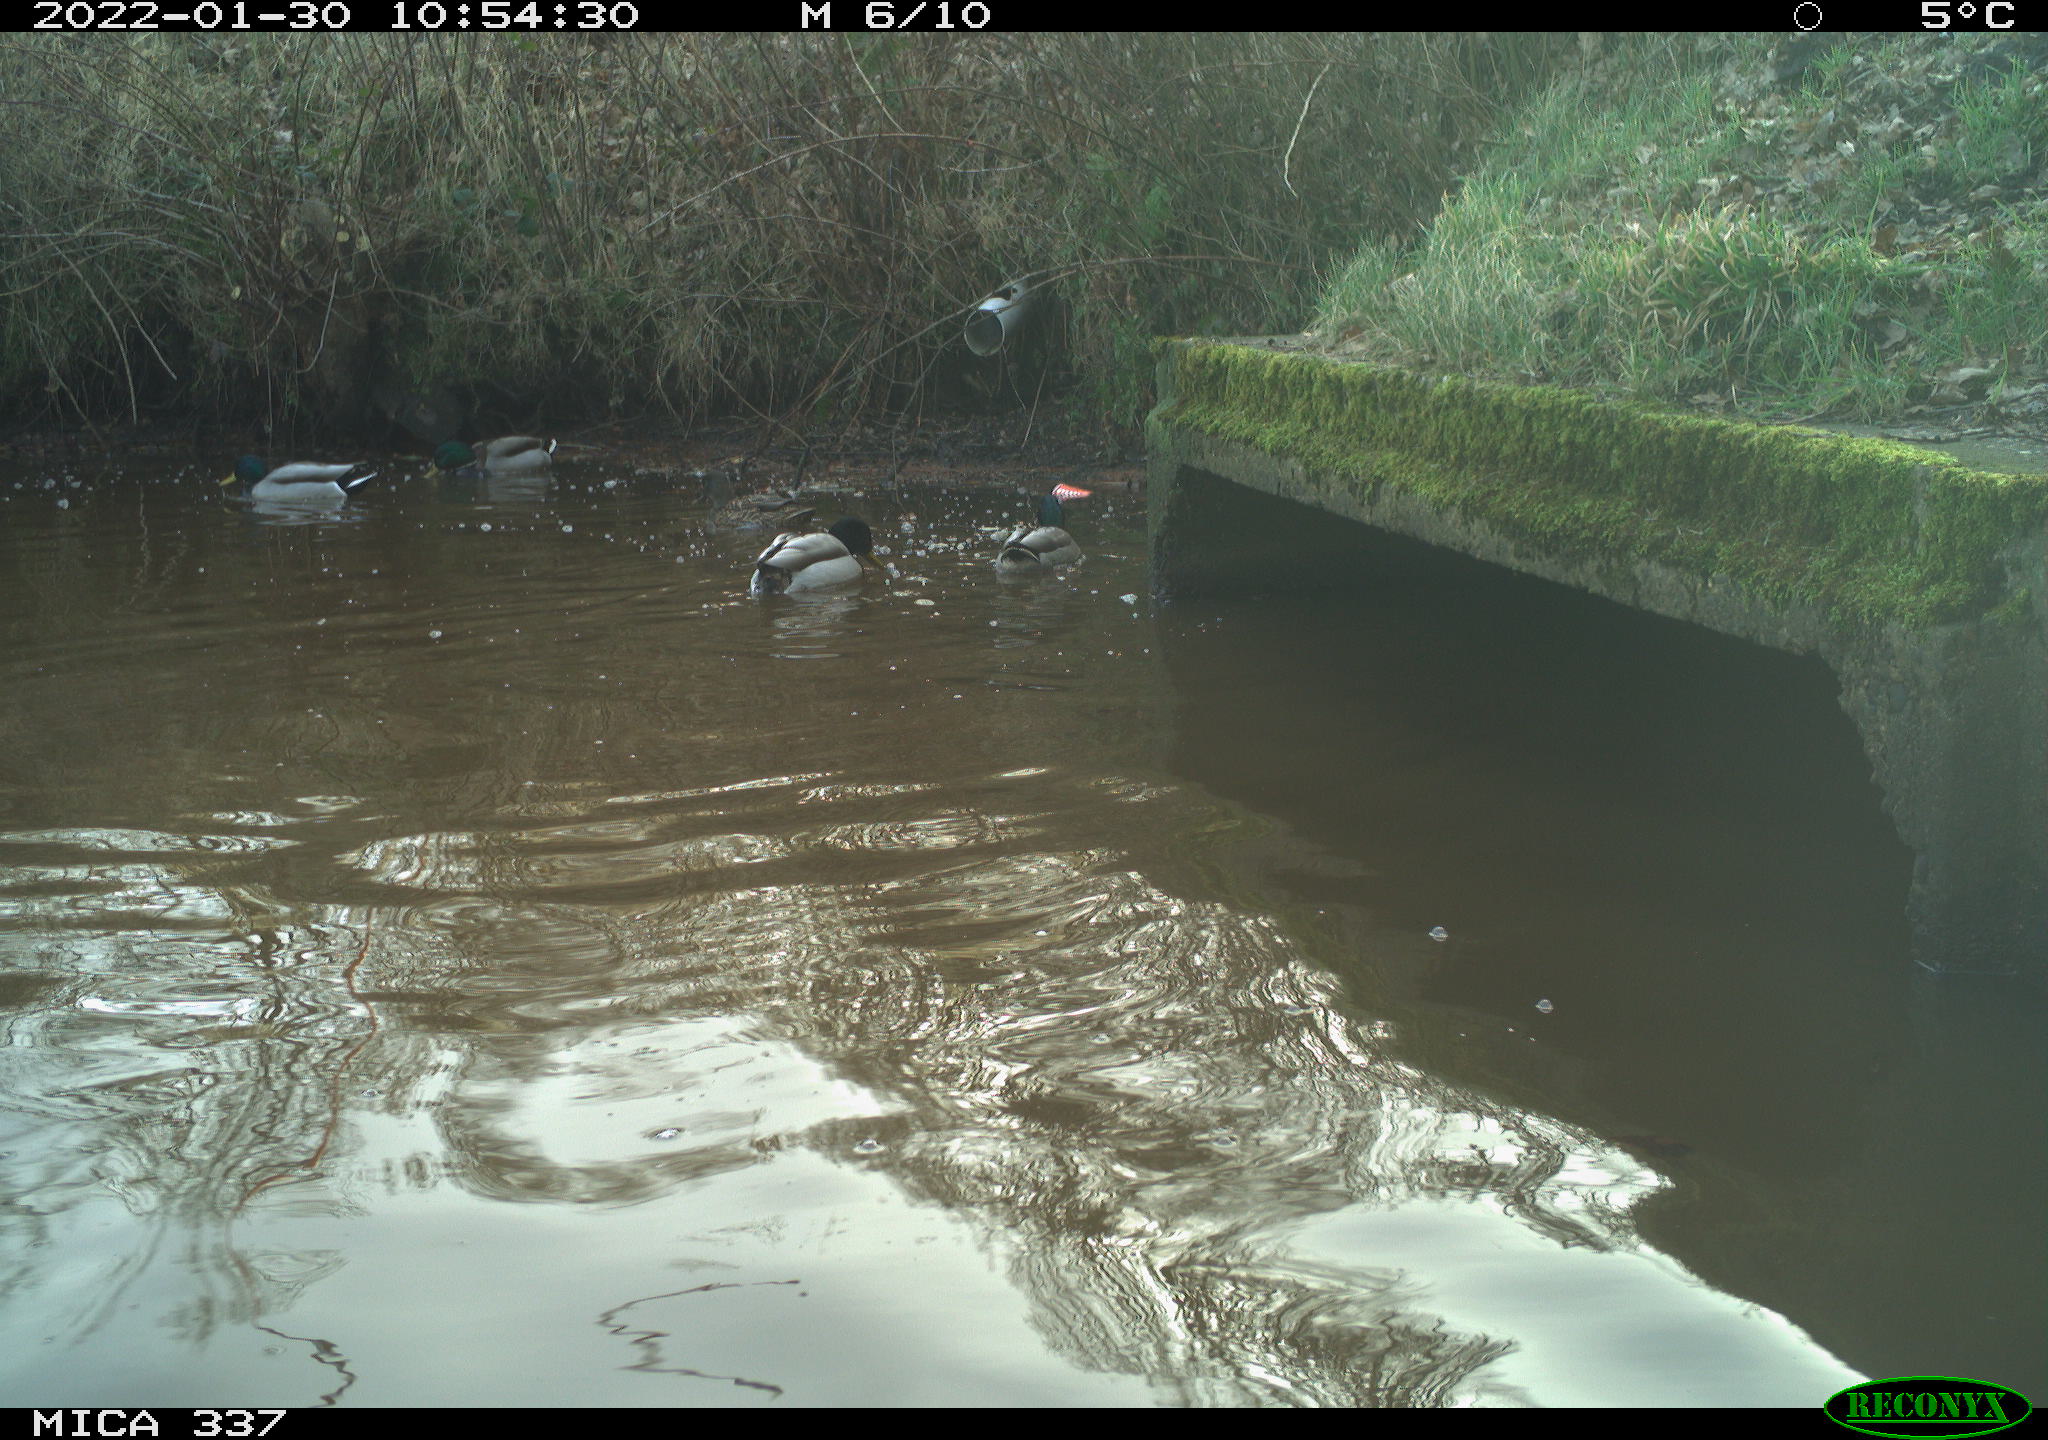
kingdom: Animalia
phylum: Chordata
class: Aves
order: Anseriformes
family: Anatidae
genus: Anas
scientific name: Anas platyrhynchos
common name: Mallard
